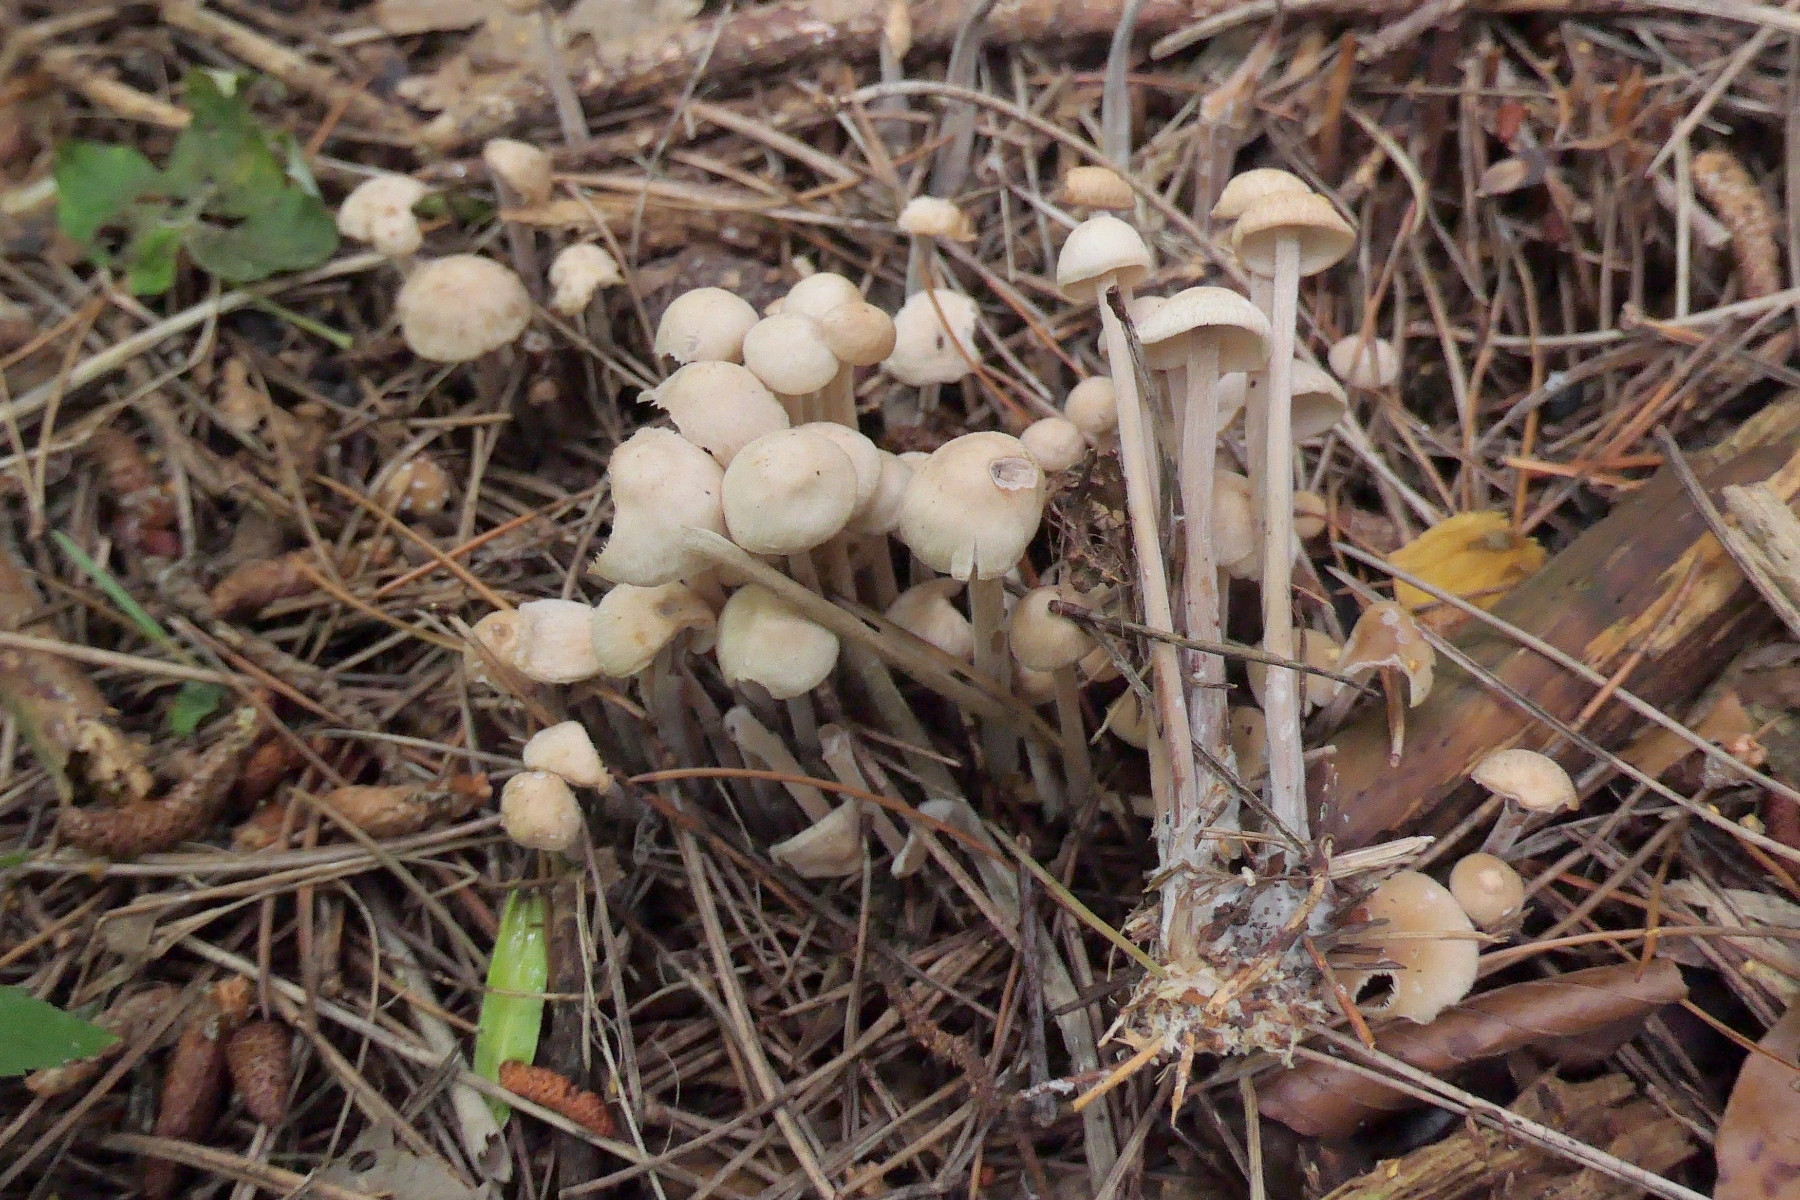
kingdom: Fungi
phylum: Basidiomycota
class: Agaricomycetes
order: Agaricales
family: Omphalotaceae
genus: Collybiopsis
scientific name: Collybiopsis confluens
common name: knippe-fladhat
